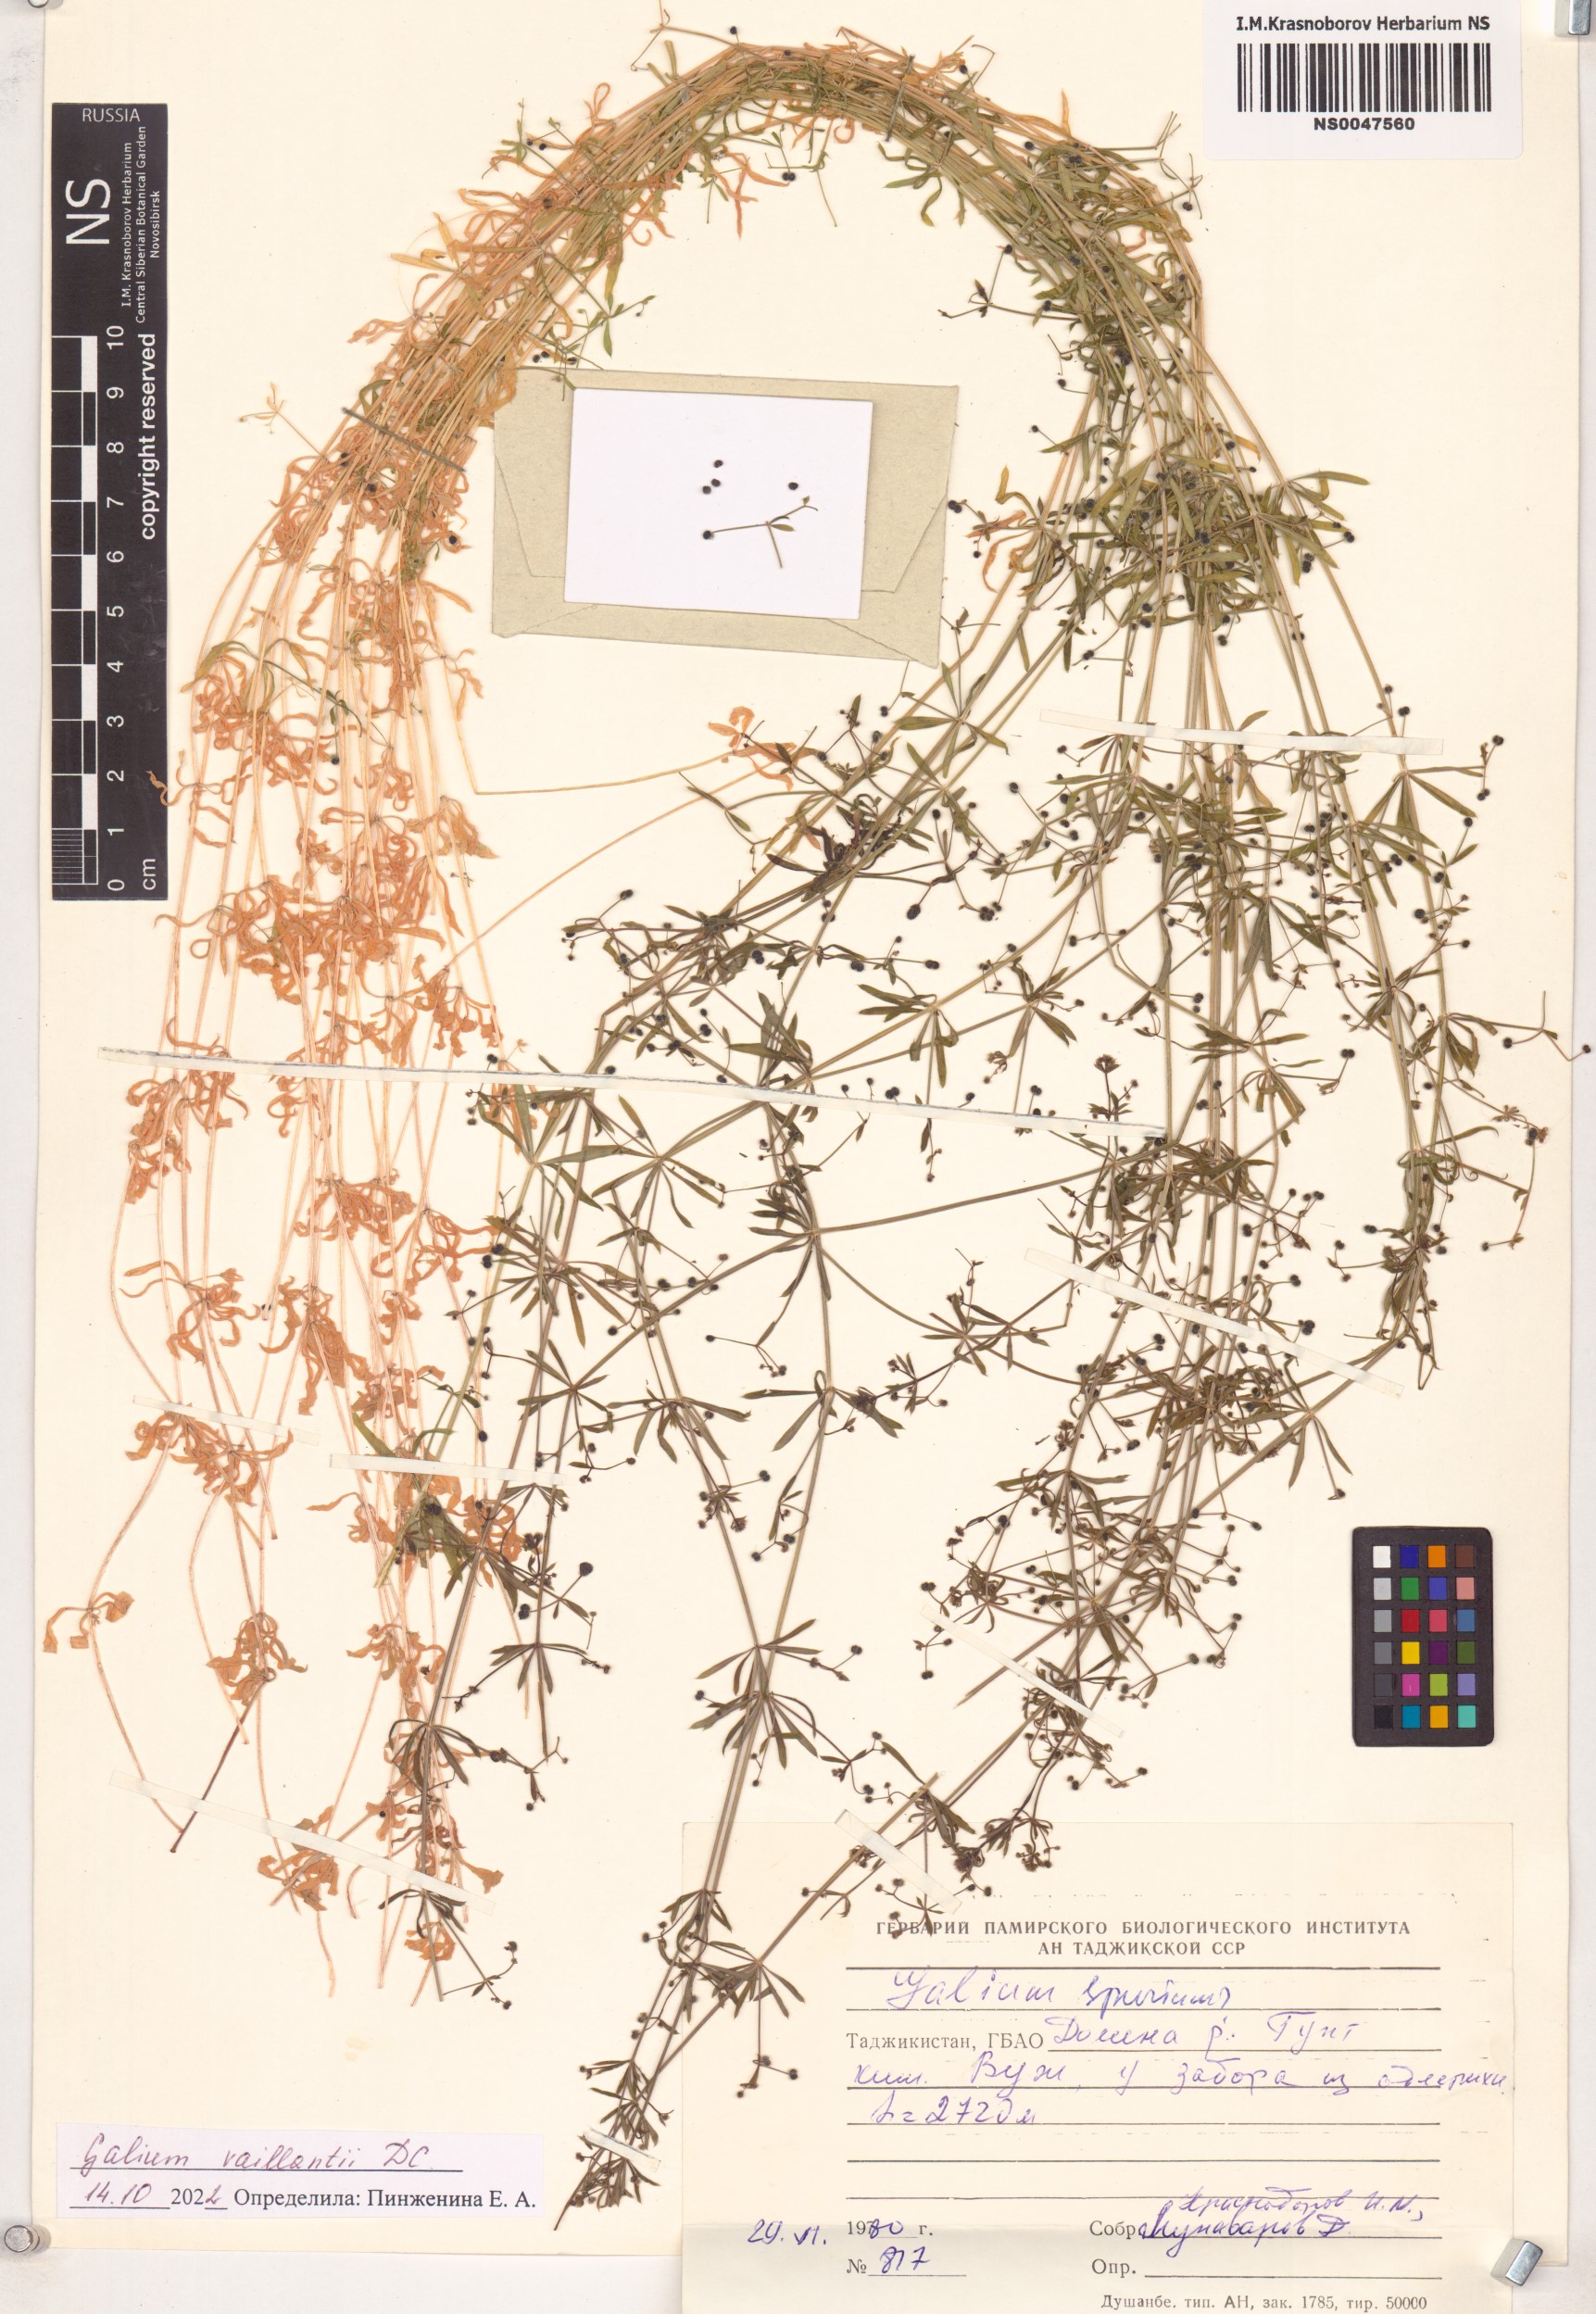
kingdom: Plantae
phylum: Tracheophyta
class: Magnoliopsida
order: Gentianales
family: Rubiaceae
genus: Galium
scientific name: Galium spurium
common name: False cleavers
